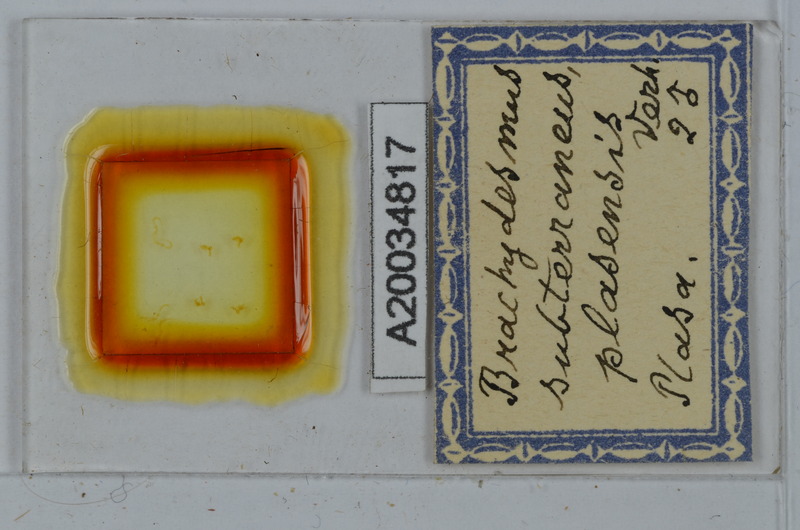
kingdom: Animalia
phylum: Arthropoda
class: Diplopoda
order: Polydesmida
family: Polydesmidae
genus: Brachydesmus
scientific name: Brachydesmus subterraneus
